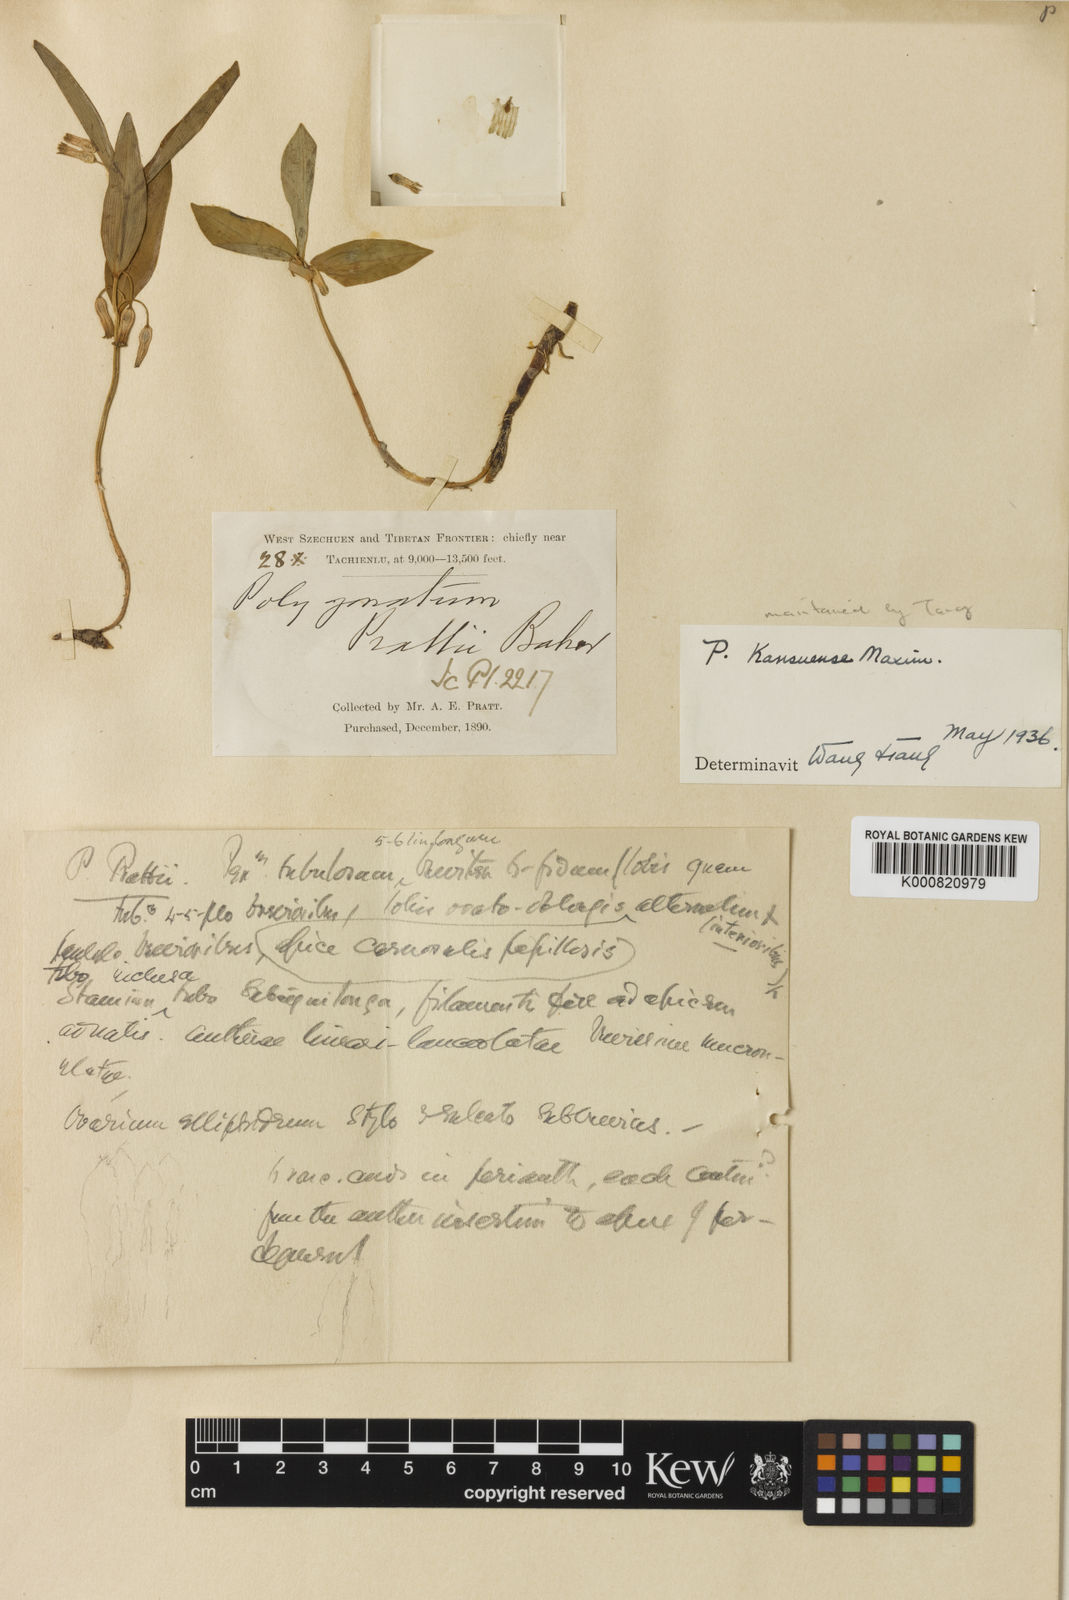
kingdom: Plantae
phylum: Tracheophyta
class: Liliopsida
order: Asparagales
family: Asparagaceae
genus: Polygonatum
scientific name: Polygonatum prattii
